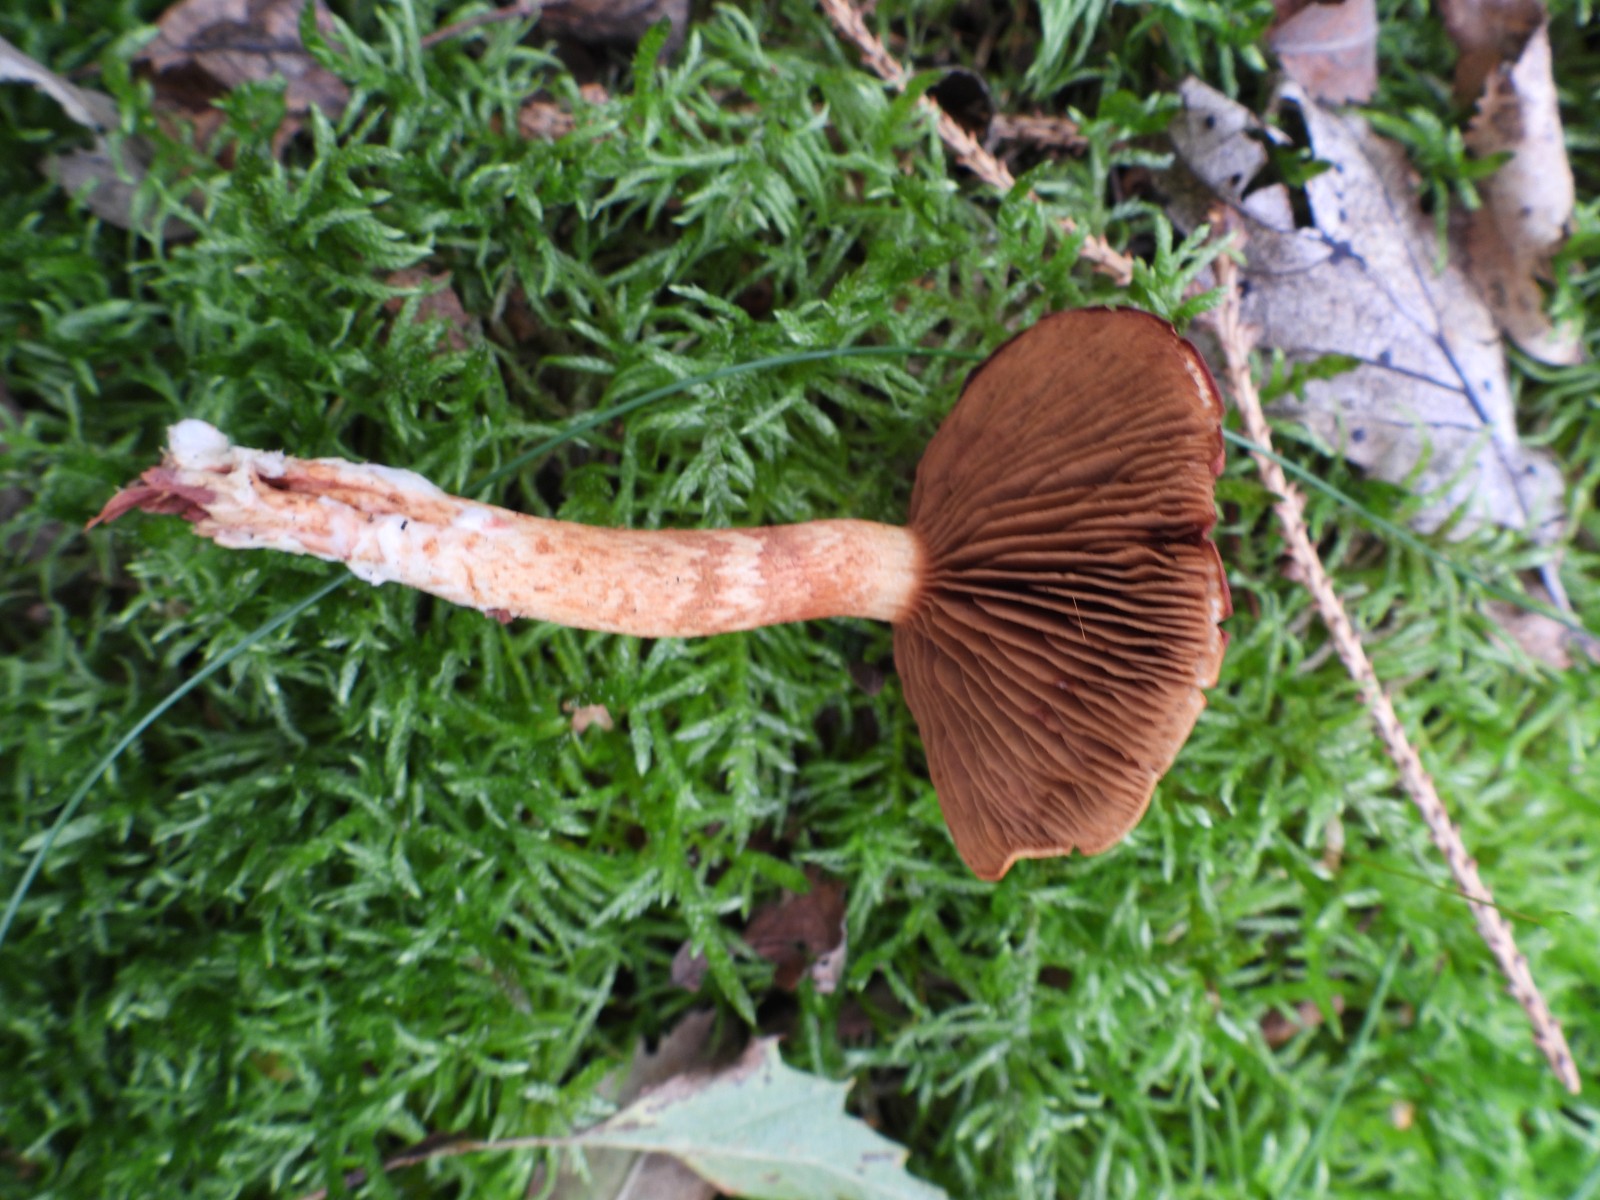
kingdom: Fungi
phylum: Basidiomycota
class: Agaricomycetes
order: Agaricales
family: Cortinariaceae
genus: Cortinarius
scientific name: Cortinarius bolaris
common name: cinnoberskællet slørhat
